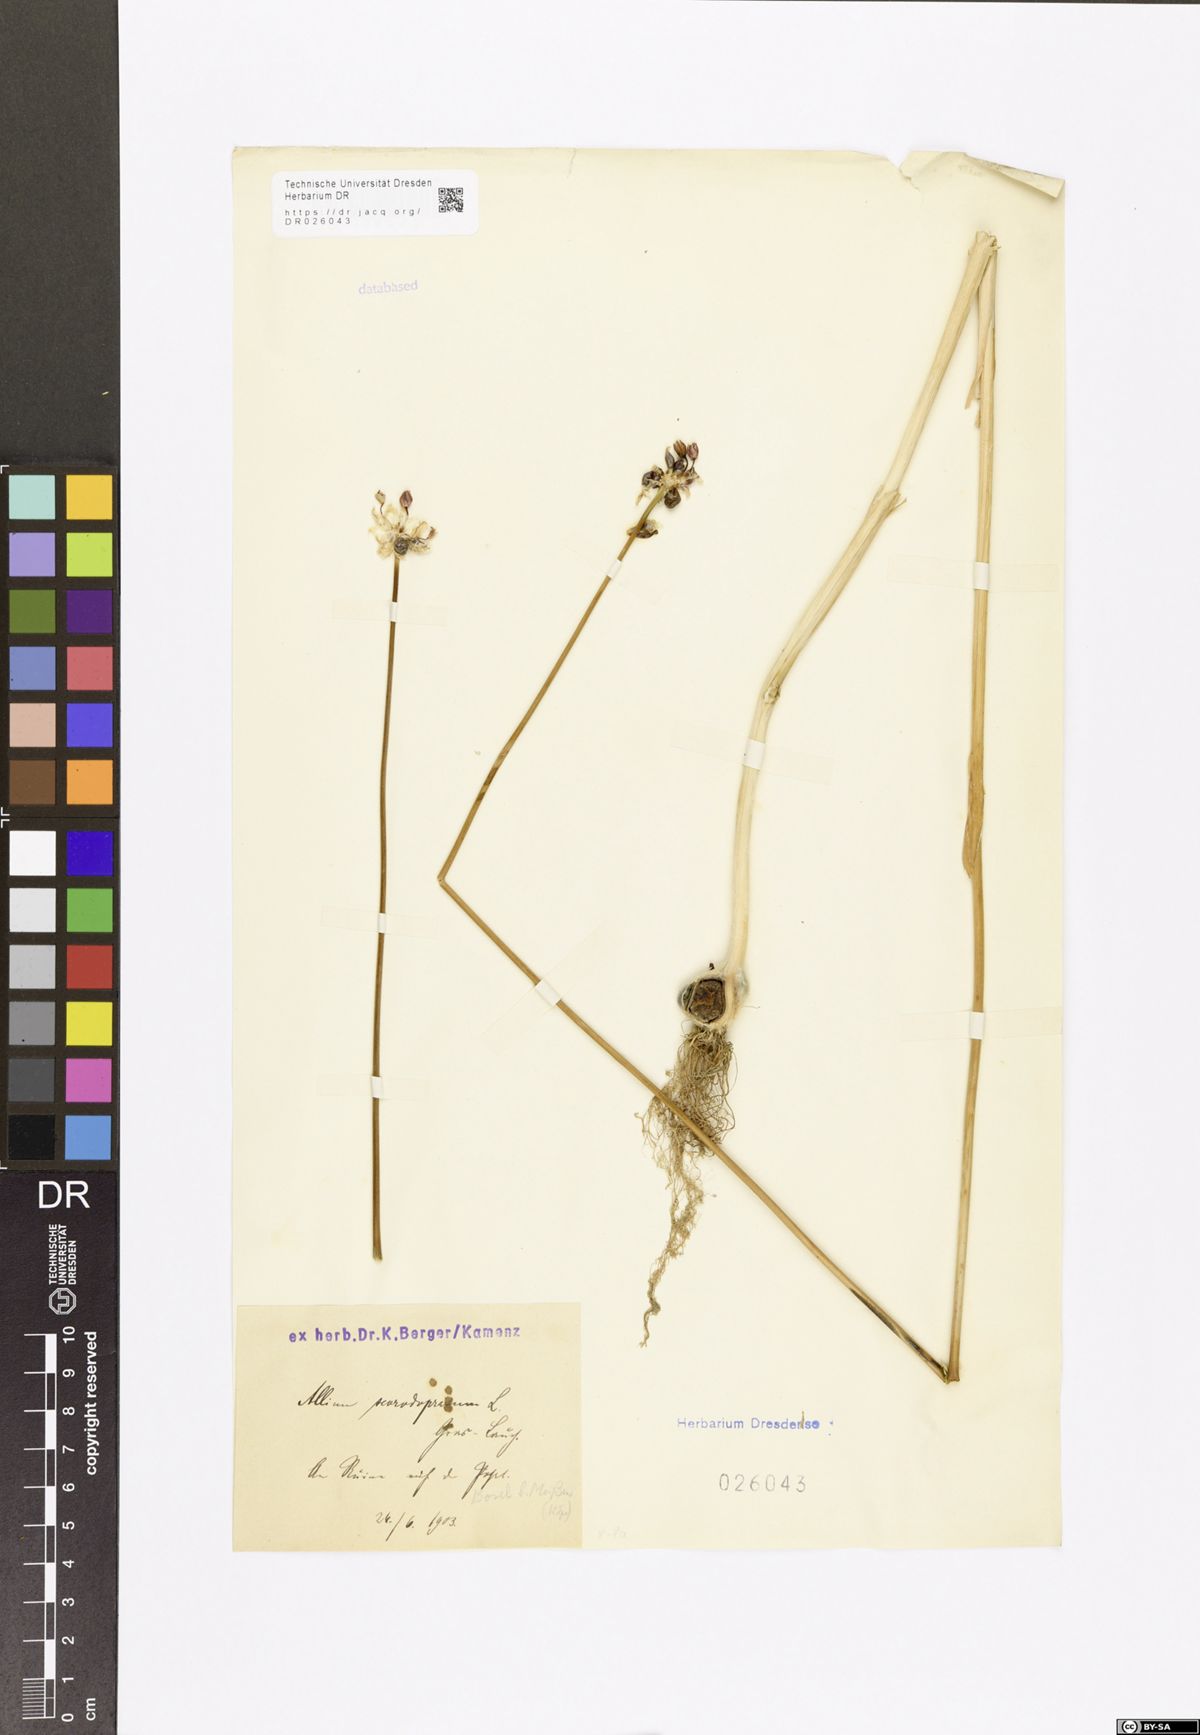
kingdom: Plantae
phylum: Tracheophyta
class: Liliopsida
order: Asparagales
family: Amaryllidaceae
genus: Allium
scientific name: Allium scorodoprasum
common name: Sand leek
